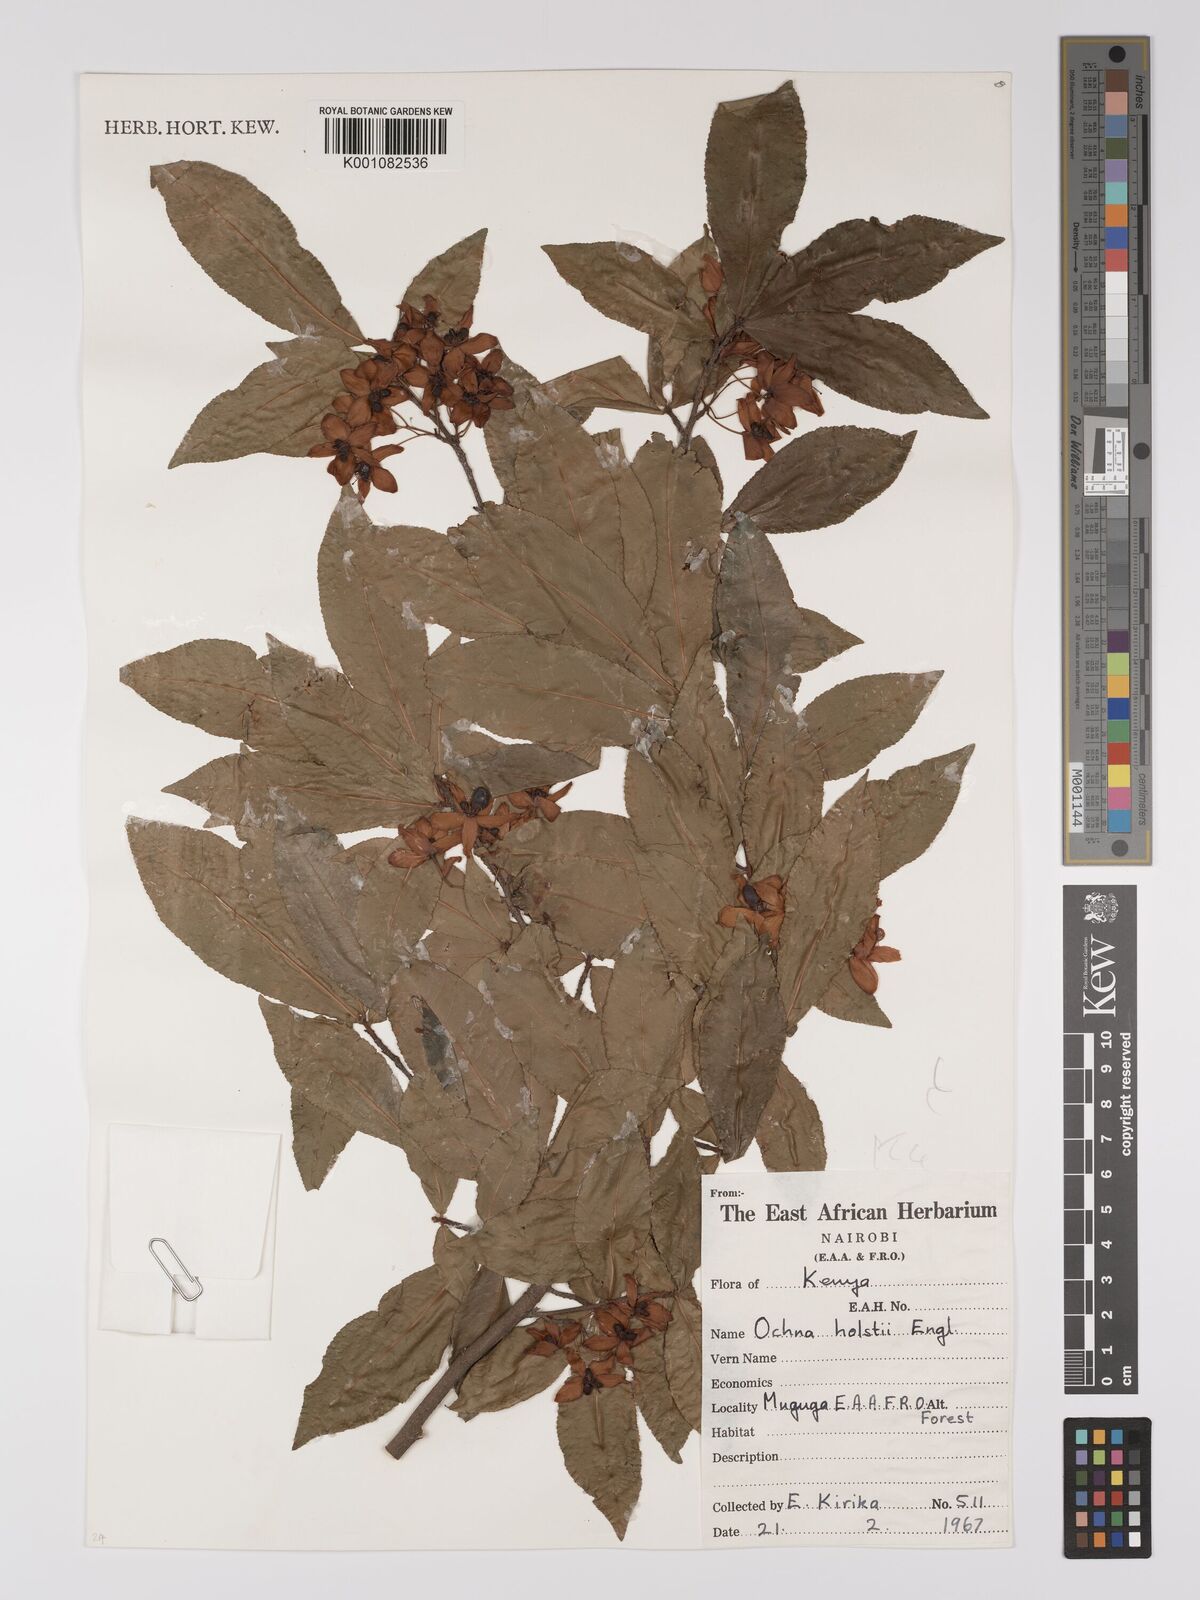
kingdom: Plantae
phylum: Tracheophyta
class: Magnoliopsida
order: Malpighiales
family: Ochnaceae
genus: Ochna
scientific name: Ochna holstii
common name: Red ironwood
